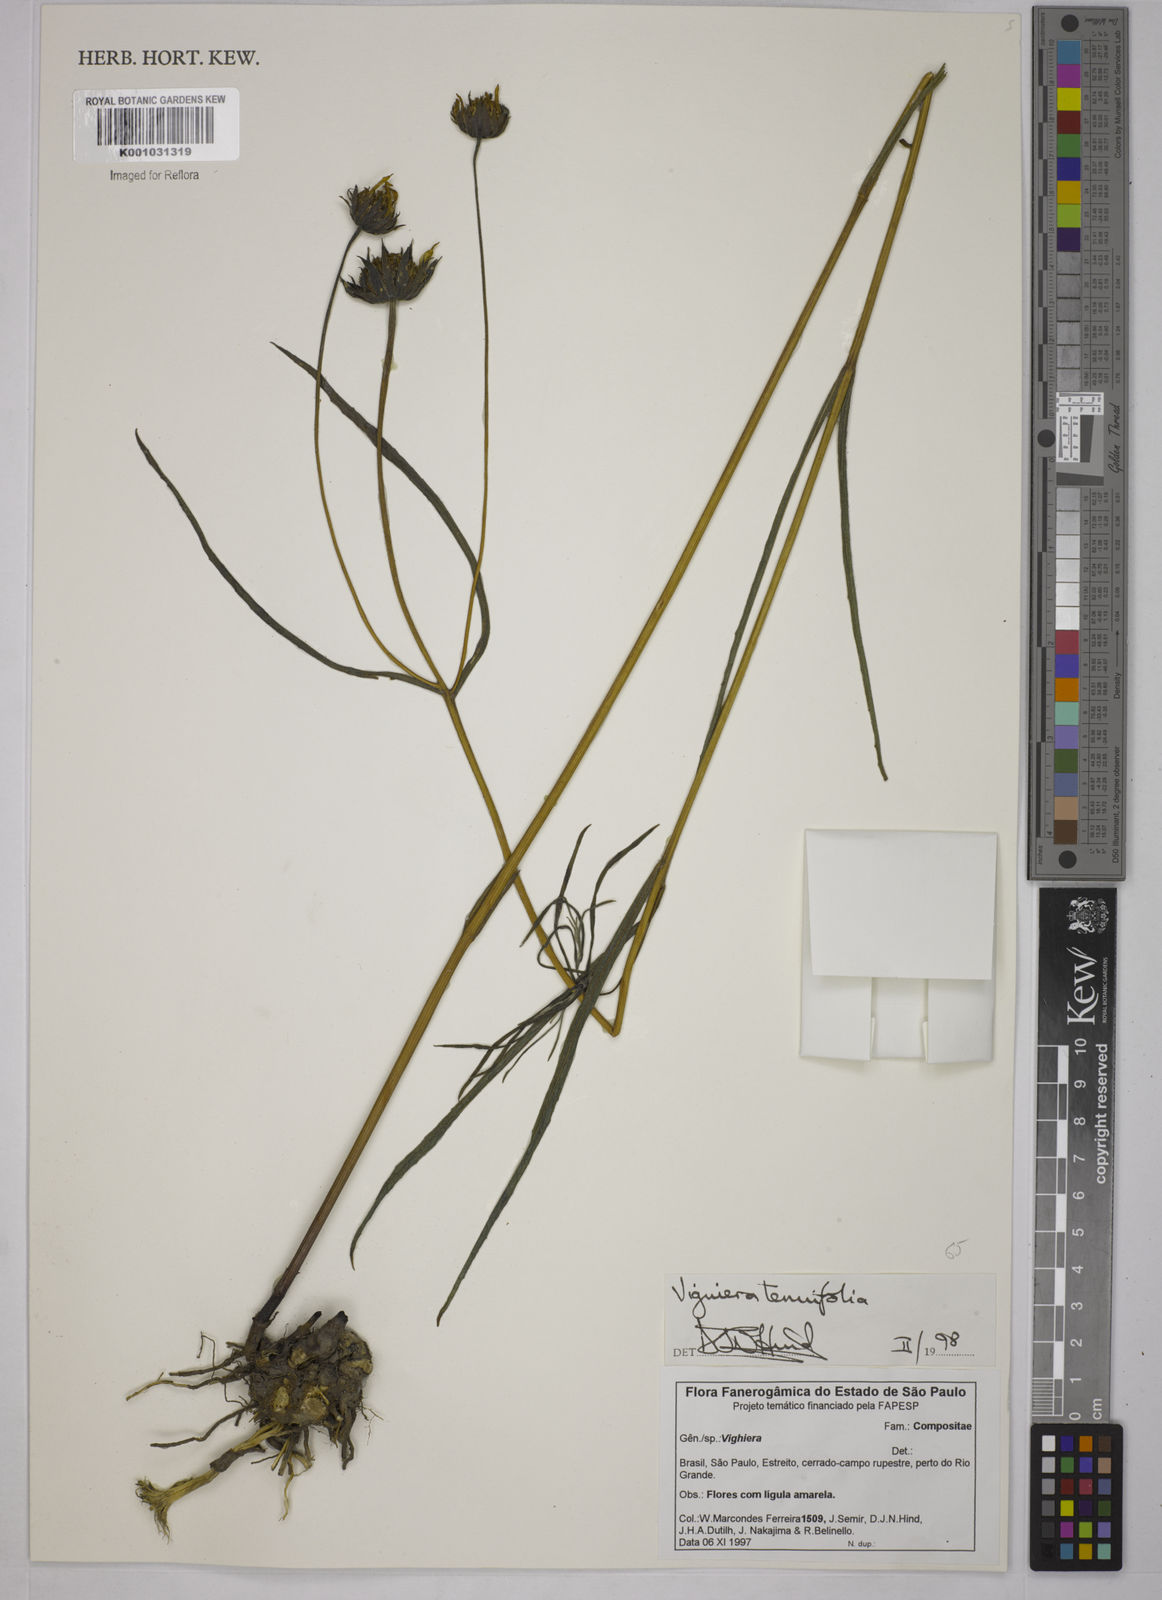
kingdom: Plantae
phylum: Tracheophyta
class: Magnoliopsida
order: Asterales
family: Asteraceae
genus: Aldama
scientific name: Aldama tenuifolia
